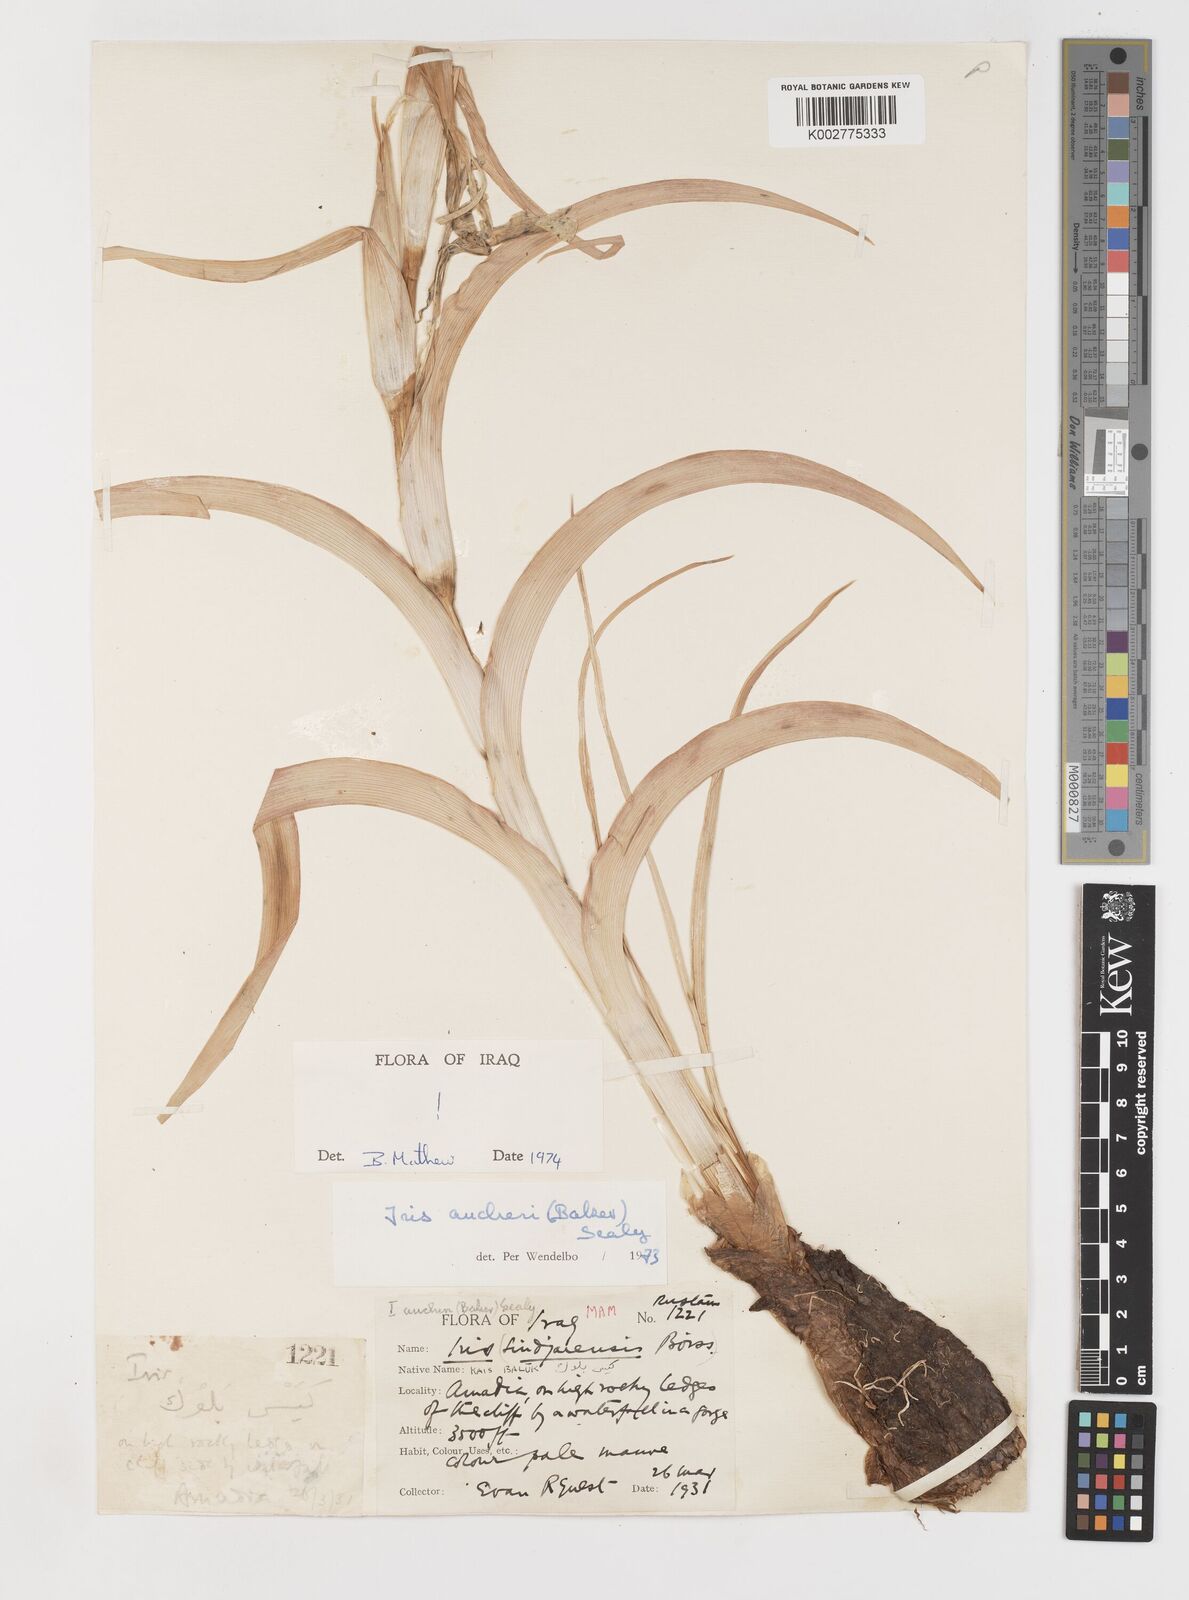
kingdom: Plantae
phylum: Tracheophyta
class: Liliopsida
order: Asparagales
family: Iridaceae
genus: Iris
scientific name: Iris aucheri
